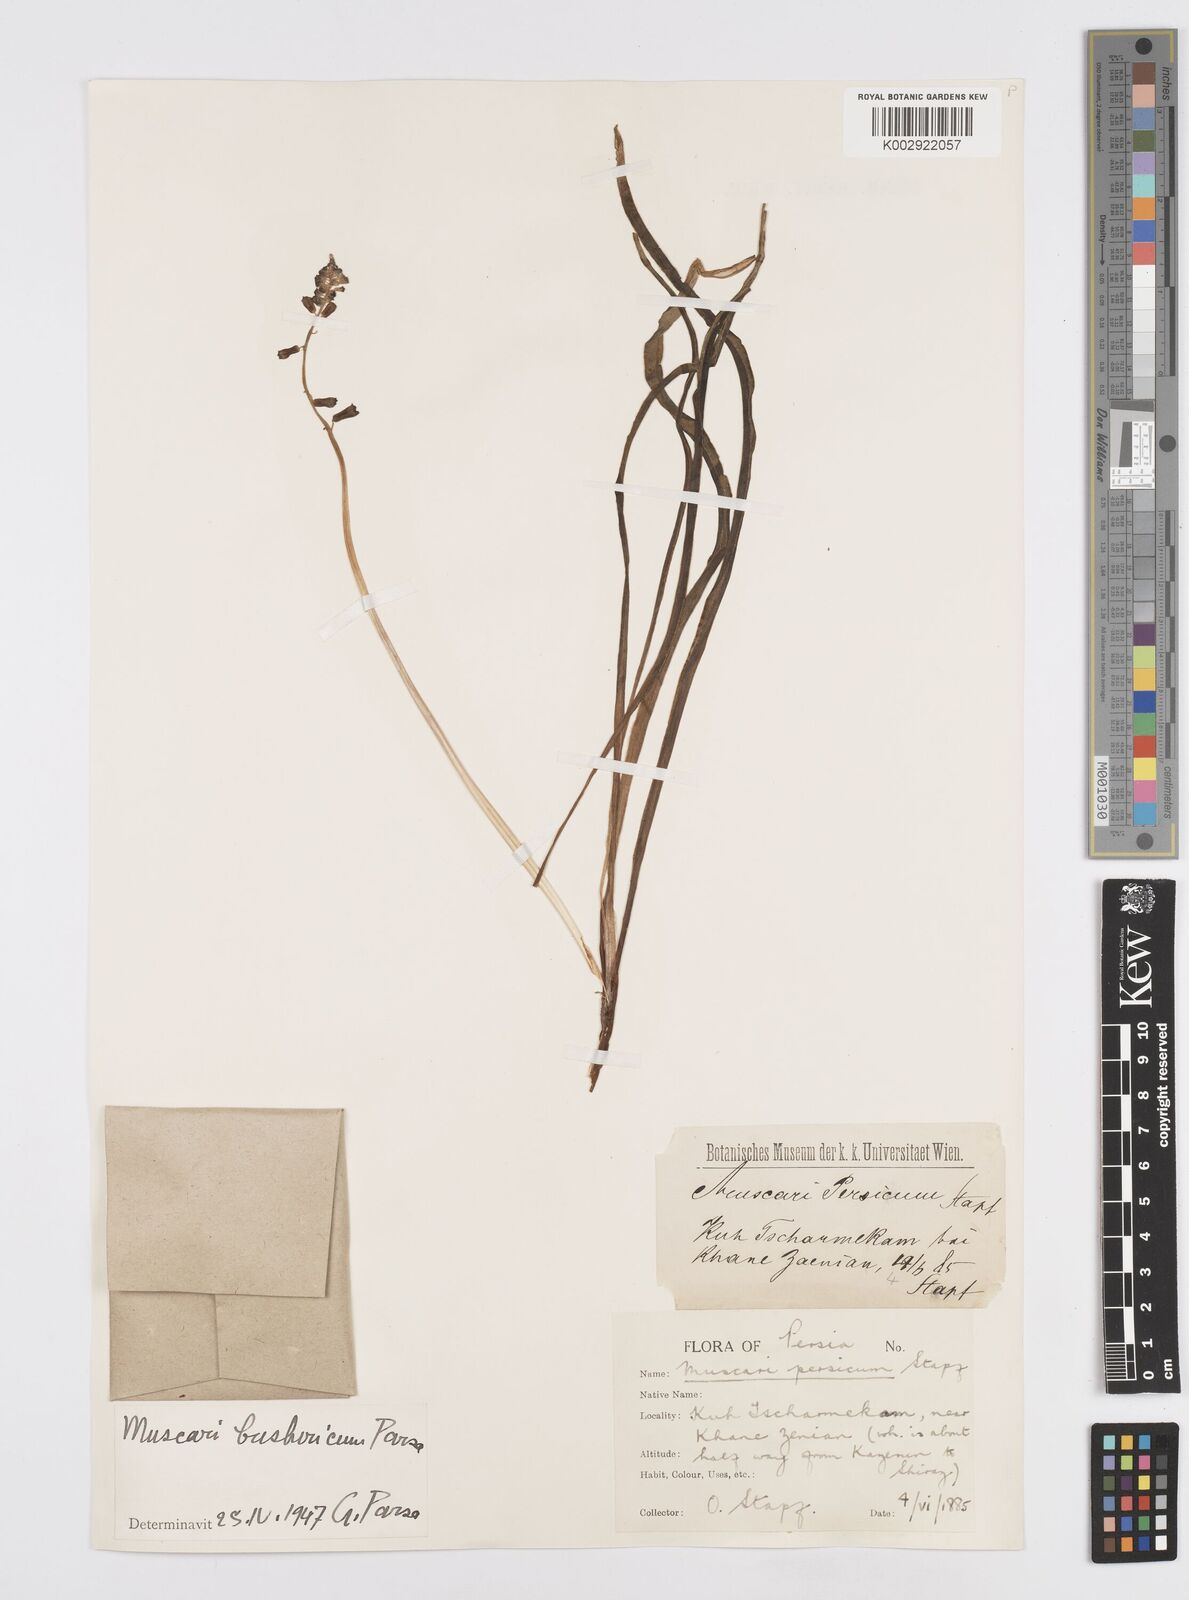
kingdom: Animalia
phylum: Mollusca
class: Cephalopoda
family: Neocomitidae
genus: Leopoldia
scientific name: Leopoldia
